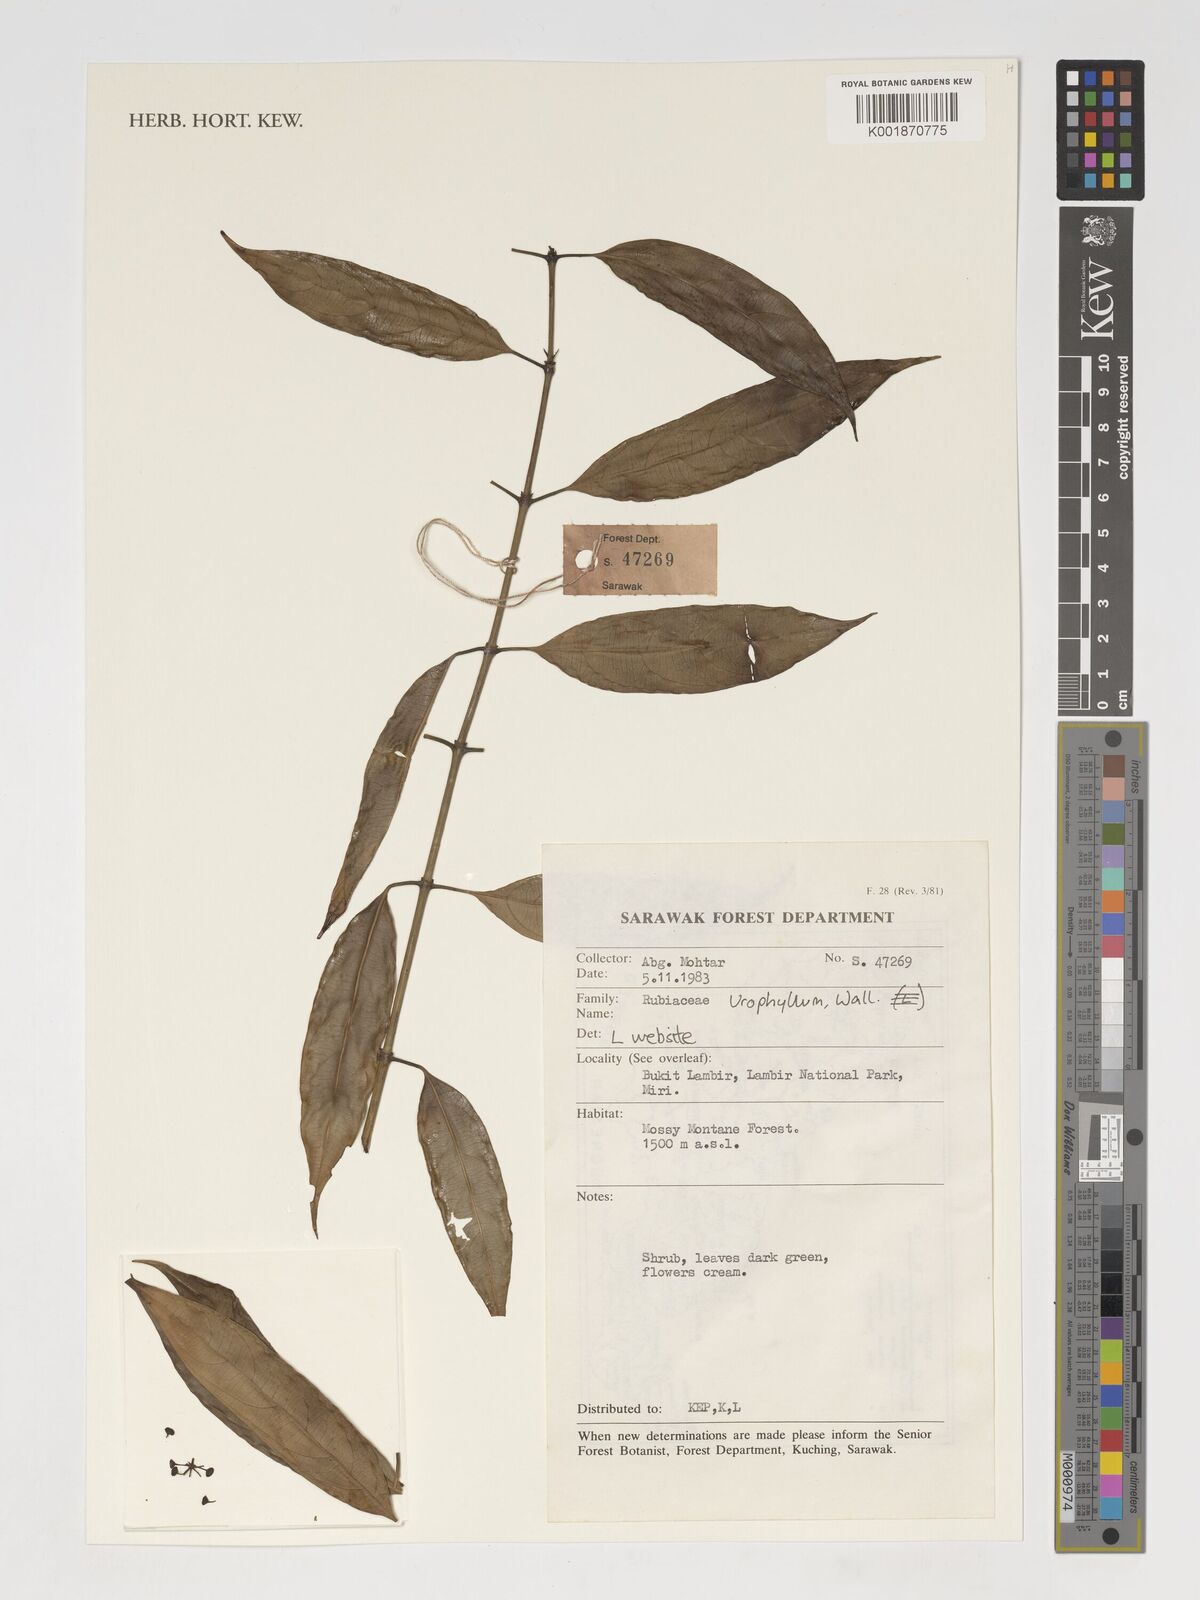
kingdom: Plantae
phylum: Tracheophyta
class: Magnoliopsida
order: Gentianales
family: Rubiaceae
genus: Urophyllum
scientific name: Urophyllum
